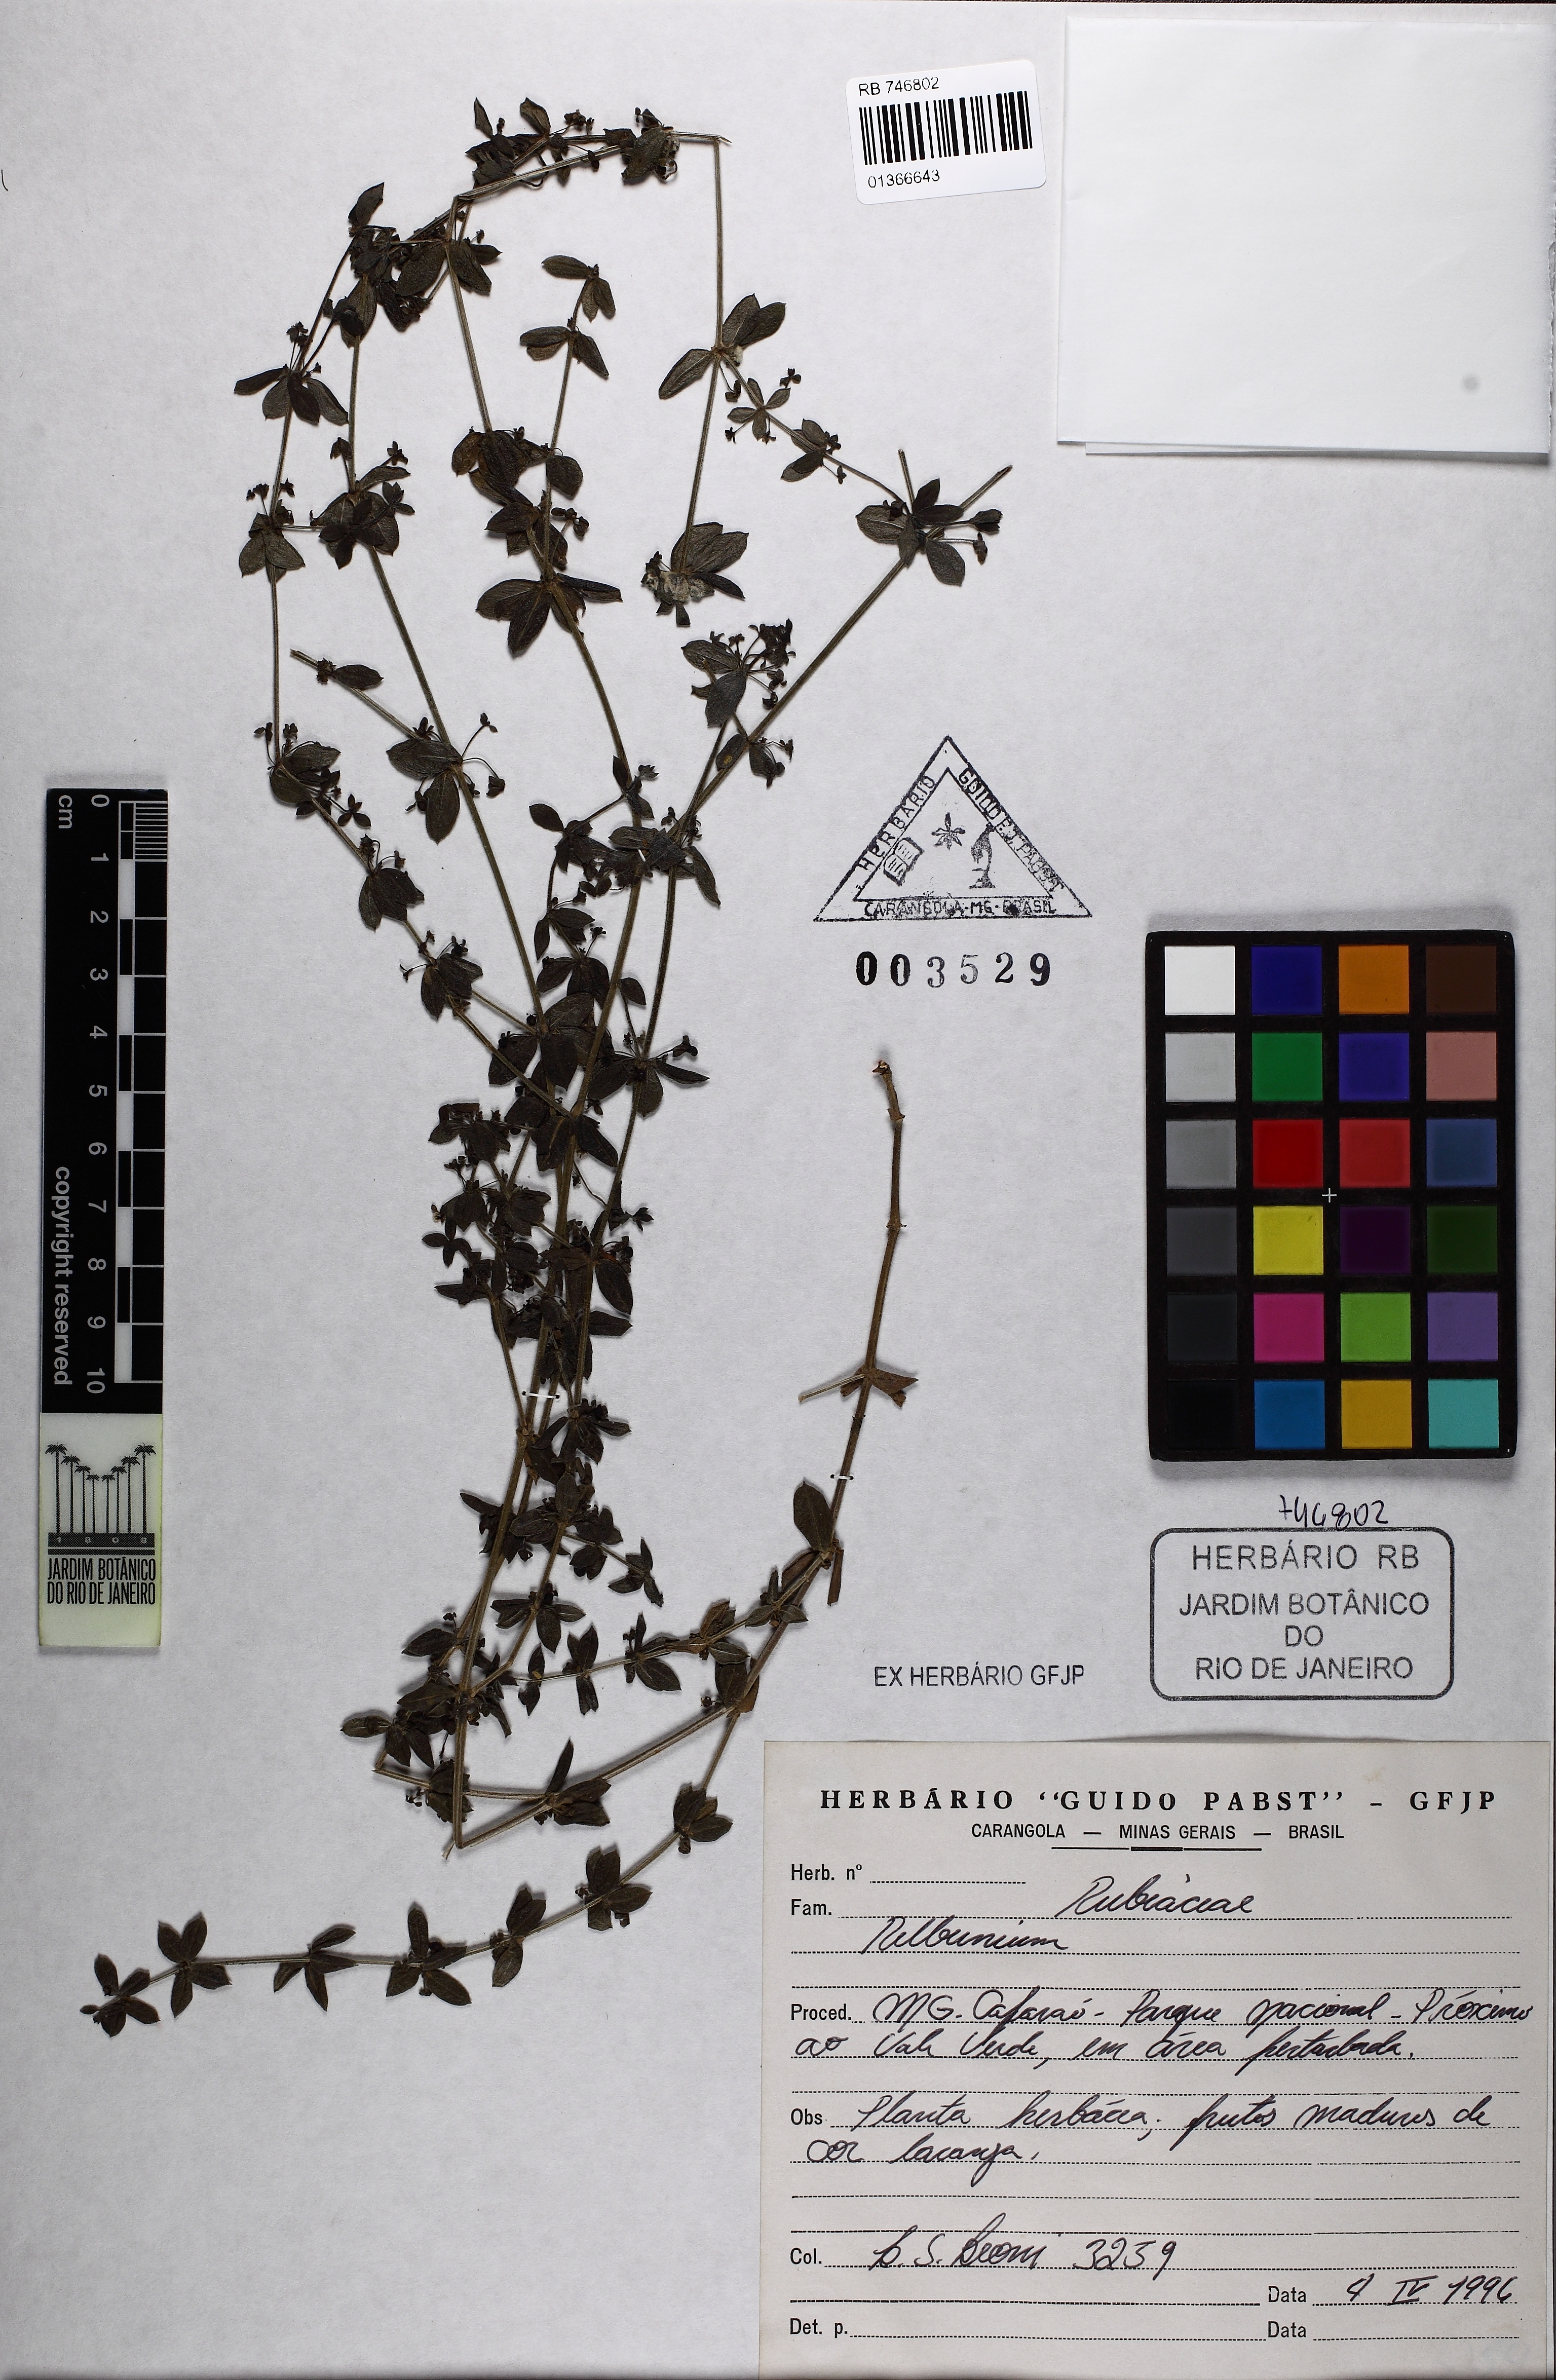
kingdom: Plantae
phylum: Tracheophyta
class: Magnoliopsida
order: Gentianales
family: Rubiaceae
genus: Galium
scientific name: Galium noxium
